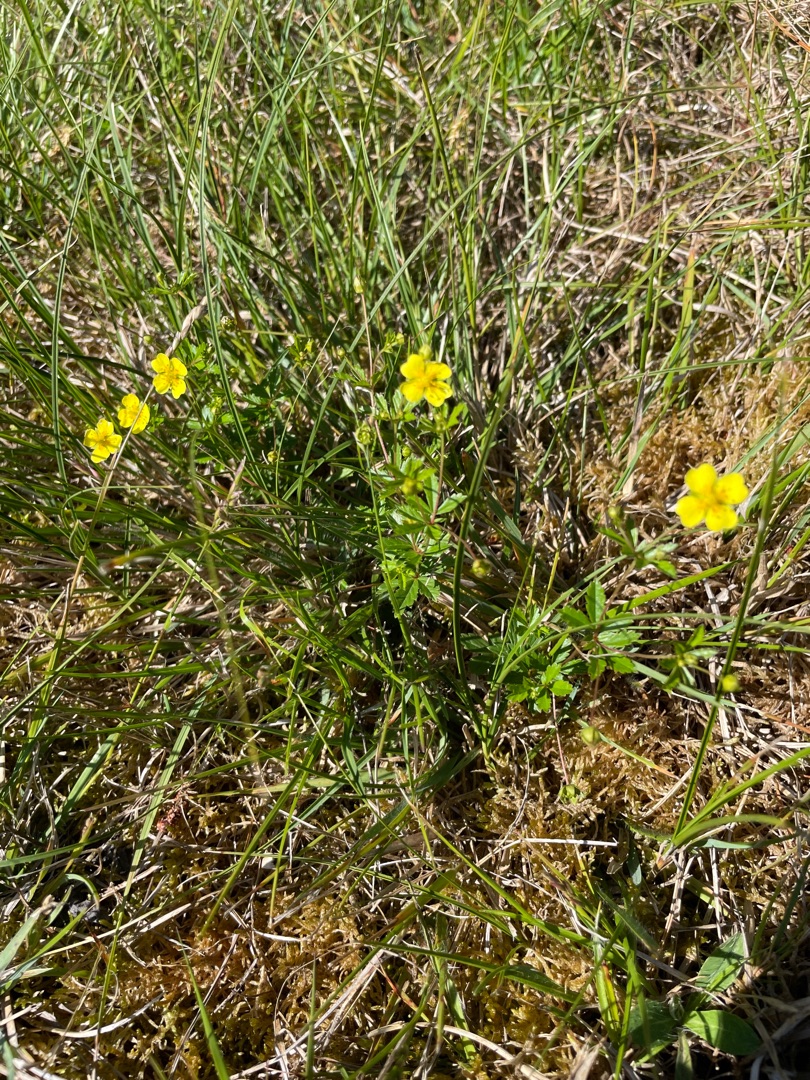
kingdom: Plantae
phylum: Tracheophyta
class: Magnoliopsida
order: Rosales
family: Rosaceae
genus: Potentilla
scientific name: Potentilla erecta
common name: Tormentil
